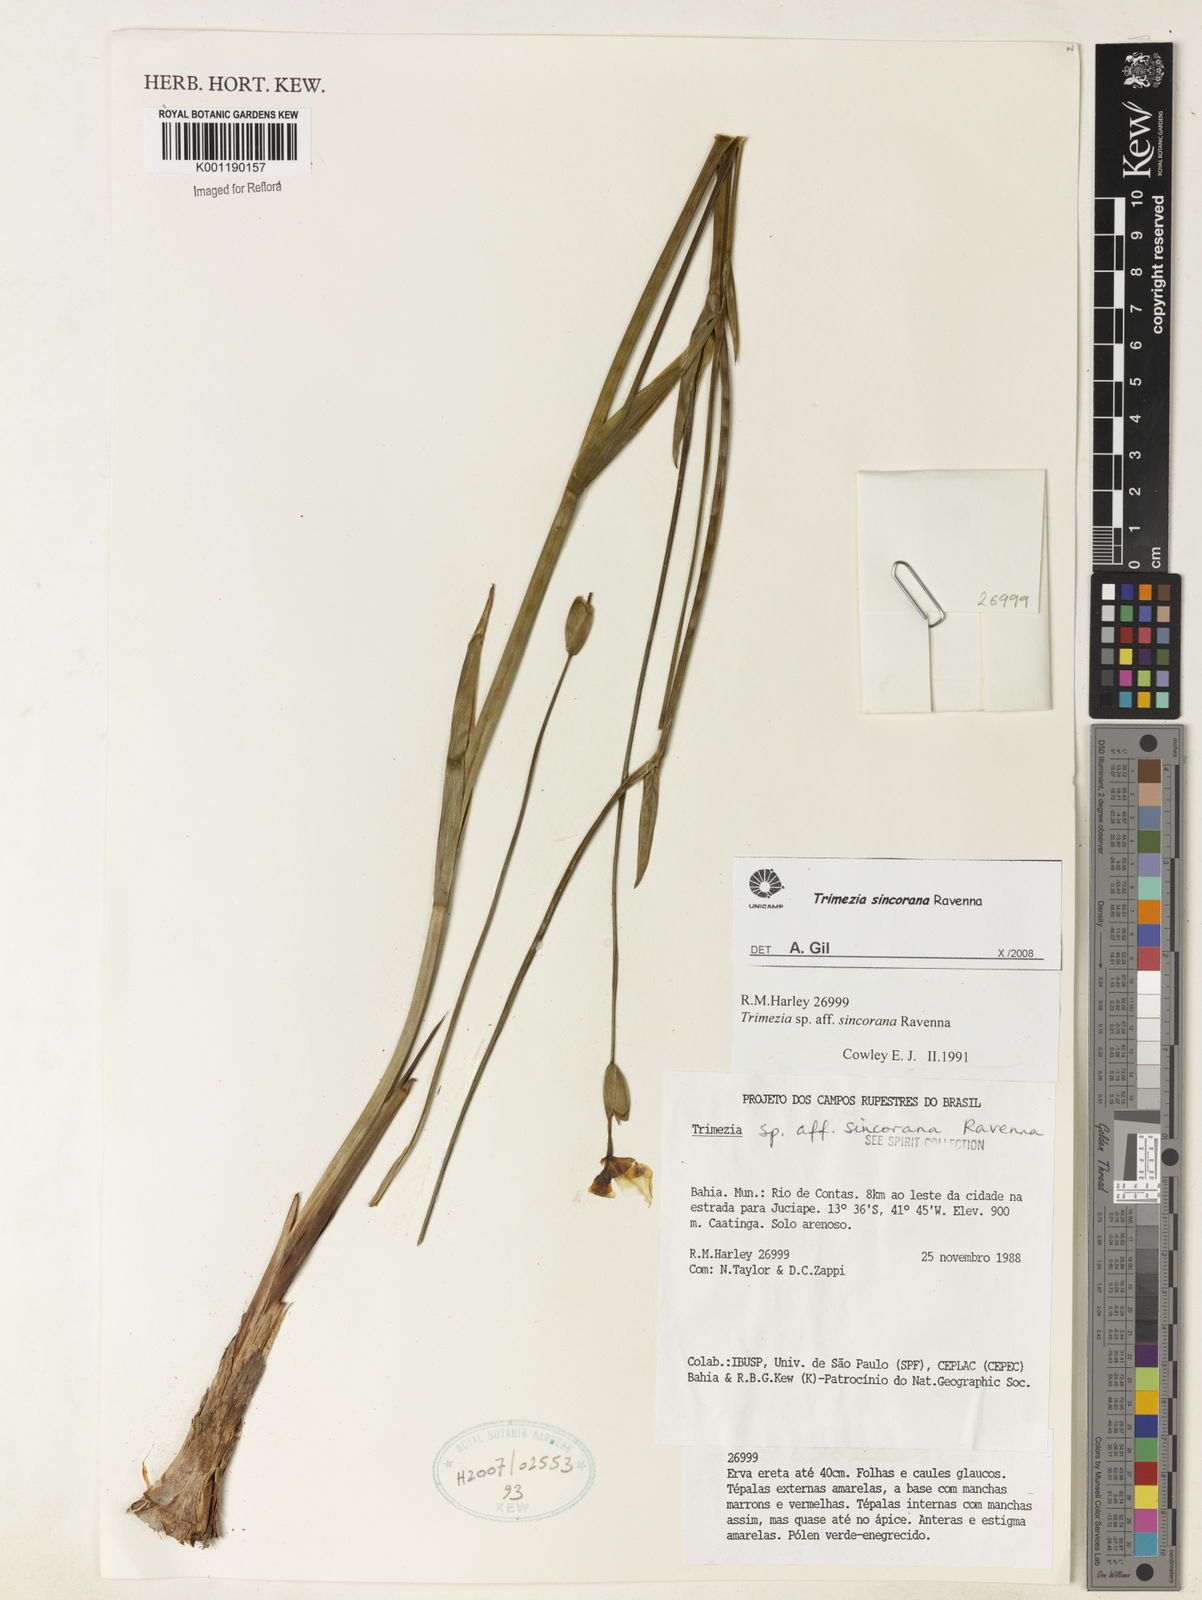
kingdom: Plantae
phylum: Tracheophyta
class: Liliopsida
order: Asparagales
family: Iridaceae
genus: Trimezia
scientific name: Trimezia spathata
